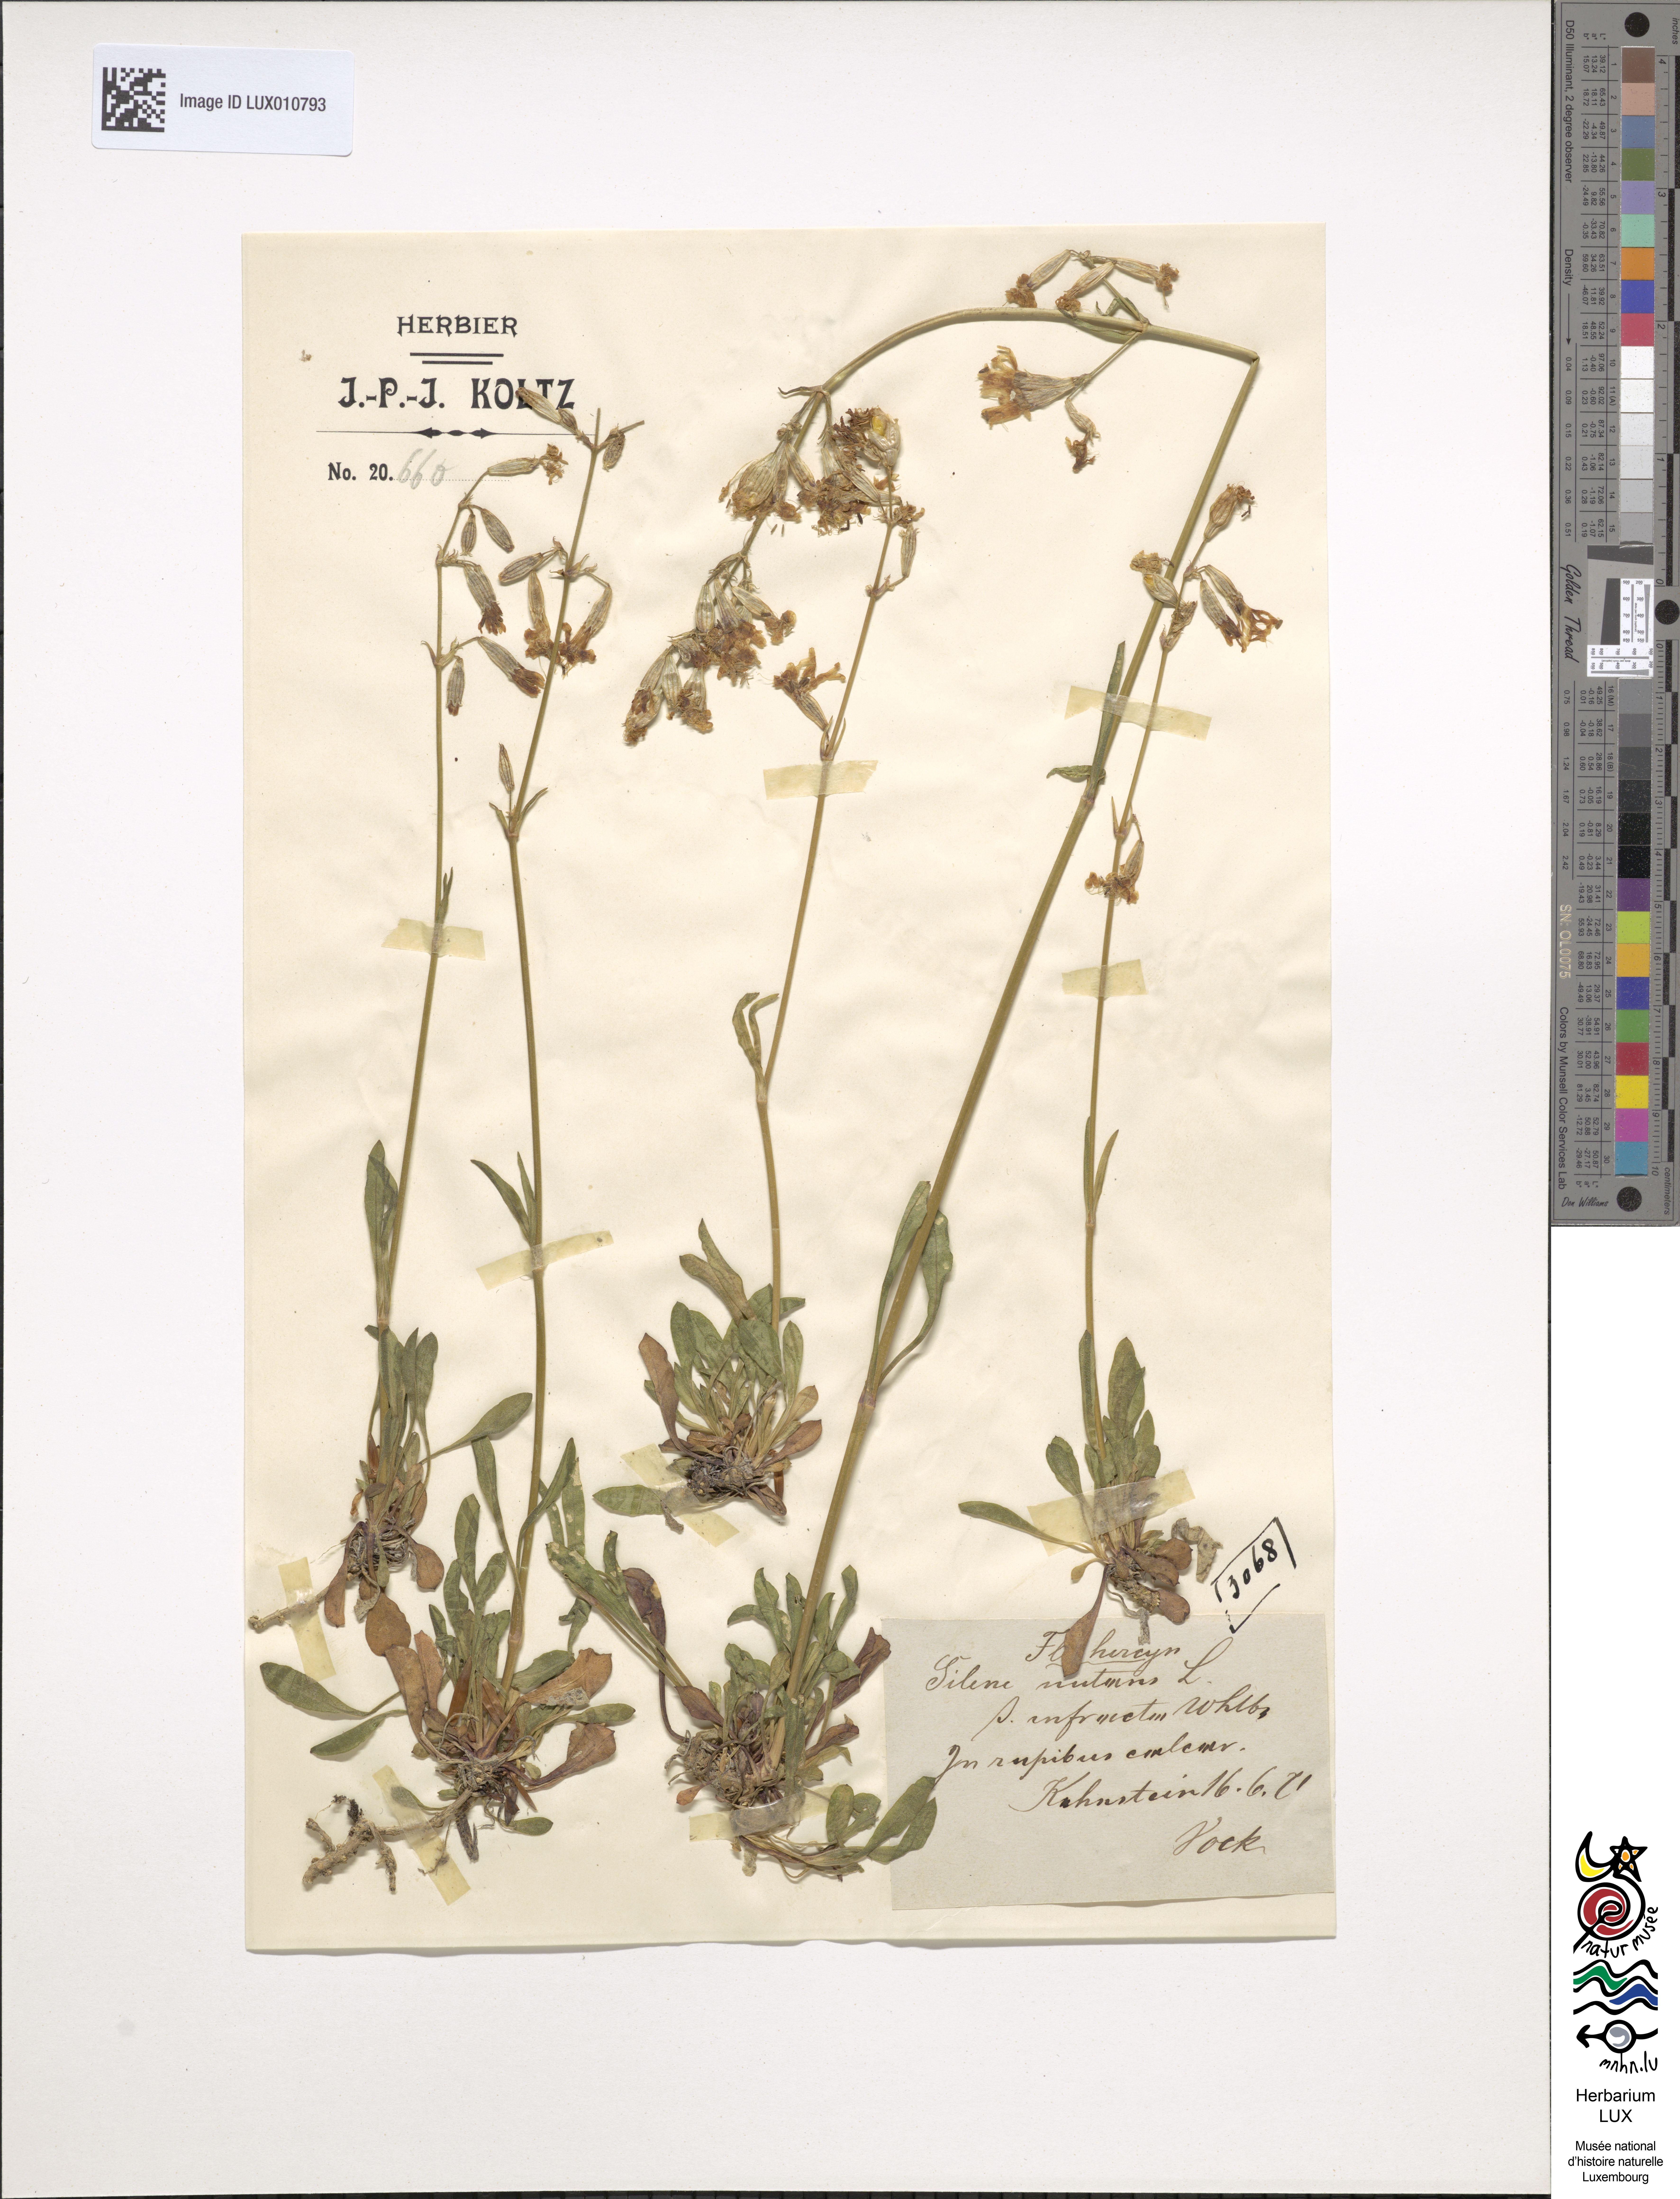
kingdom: Plantae
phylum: Tracheophyta
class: Magnoliopsida
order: Caryophyllales
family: Caryophyllaceae
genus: Silene
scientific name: Silene nutans
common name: Nottingham catchfly
